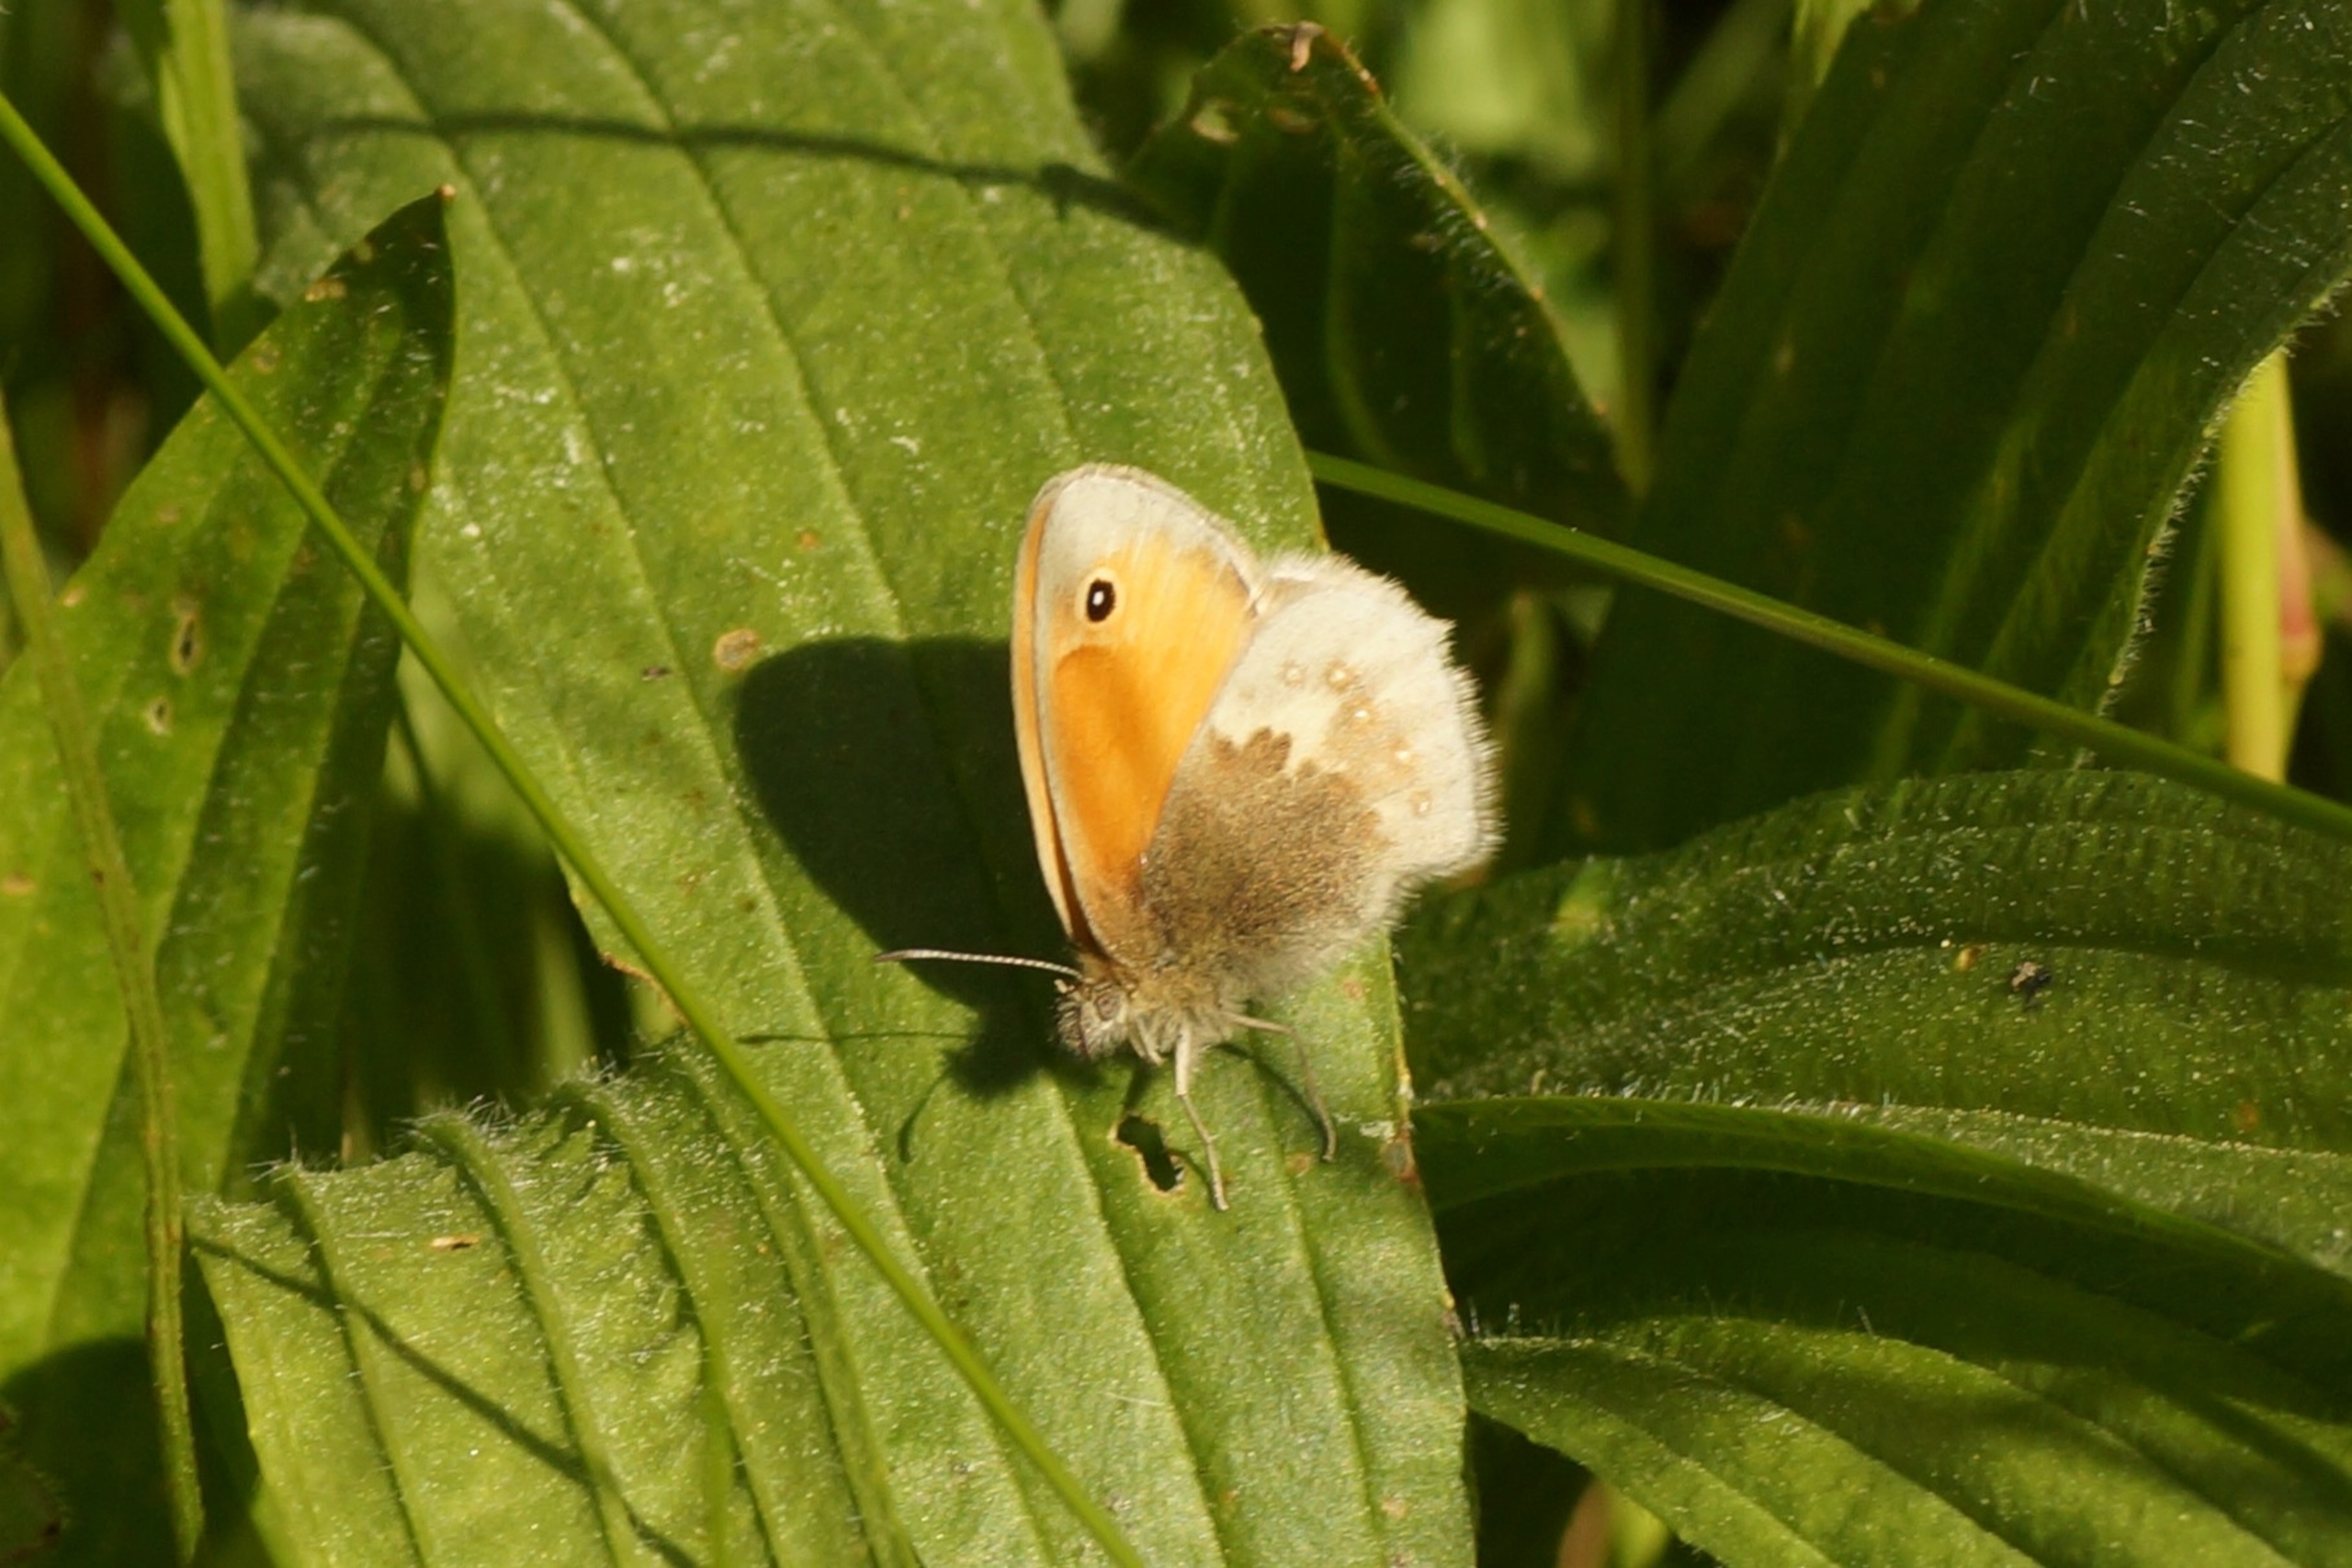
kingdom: Animalia
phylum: Arthropoda
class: Insecta
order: Lepidoptera
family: Nymphalidae
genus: Coenonympha
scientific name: Coenonympha pamphilus
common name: Okkergul randøje
